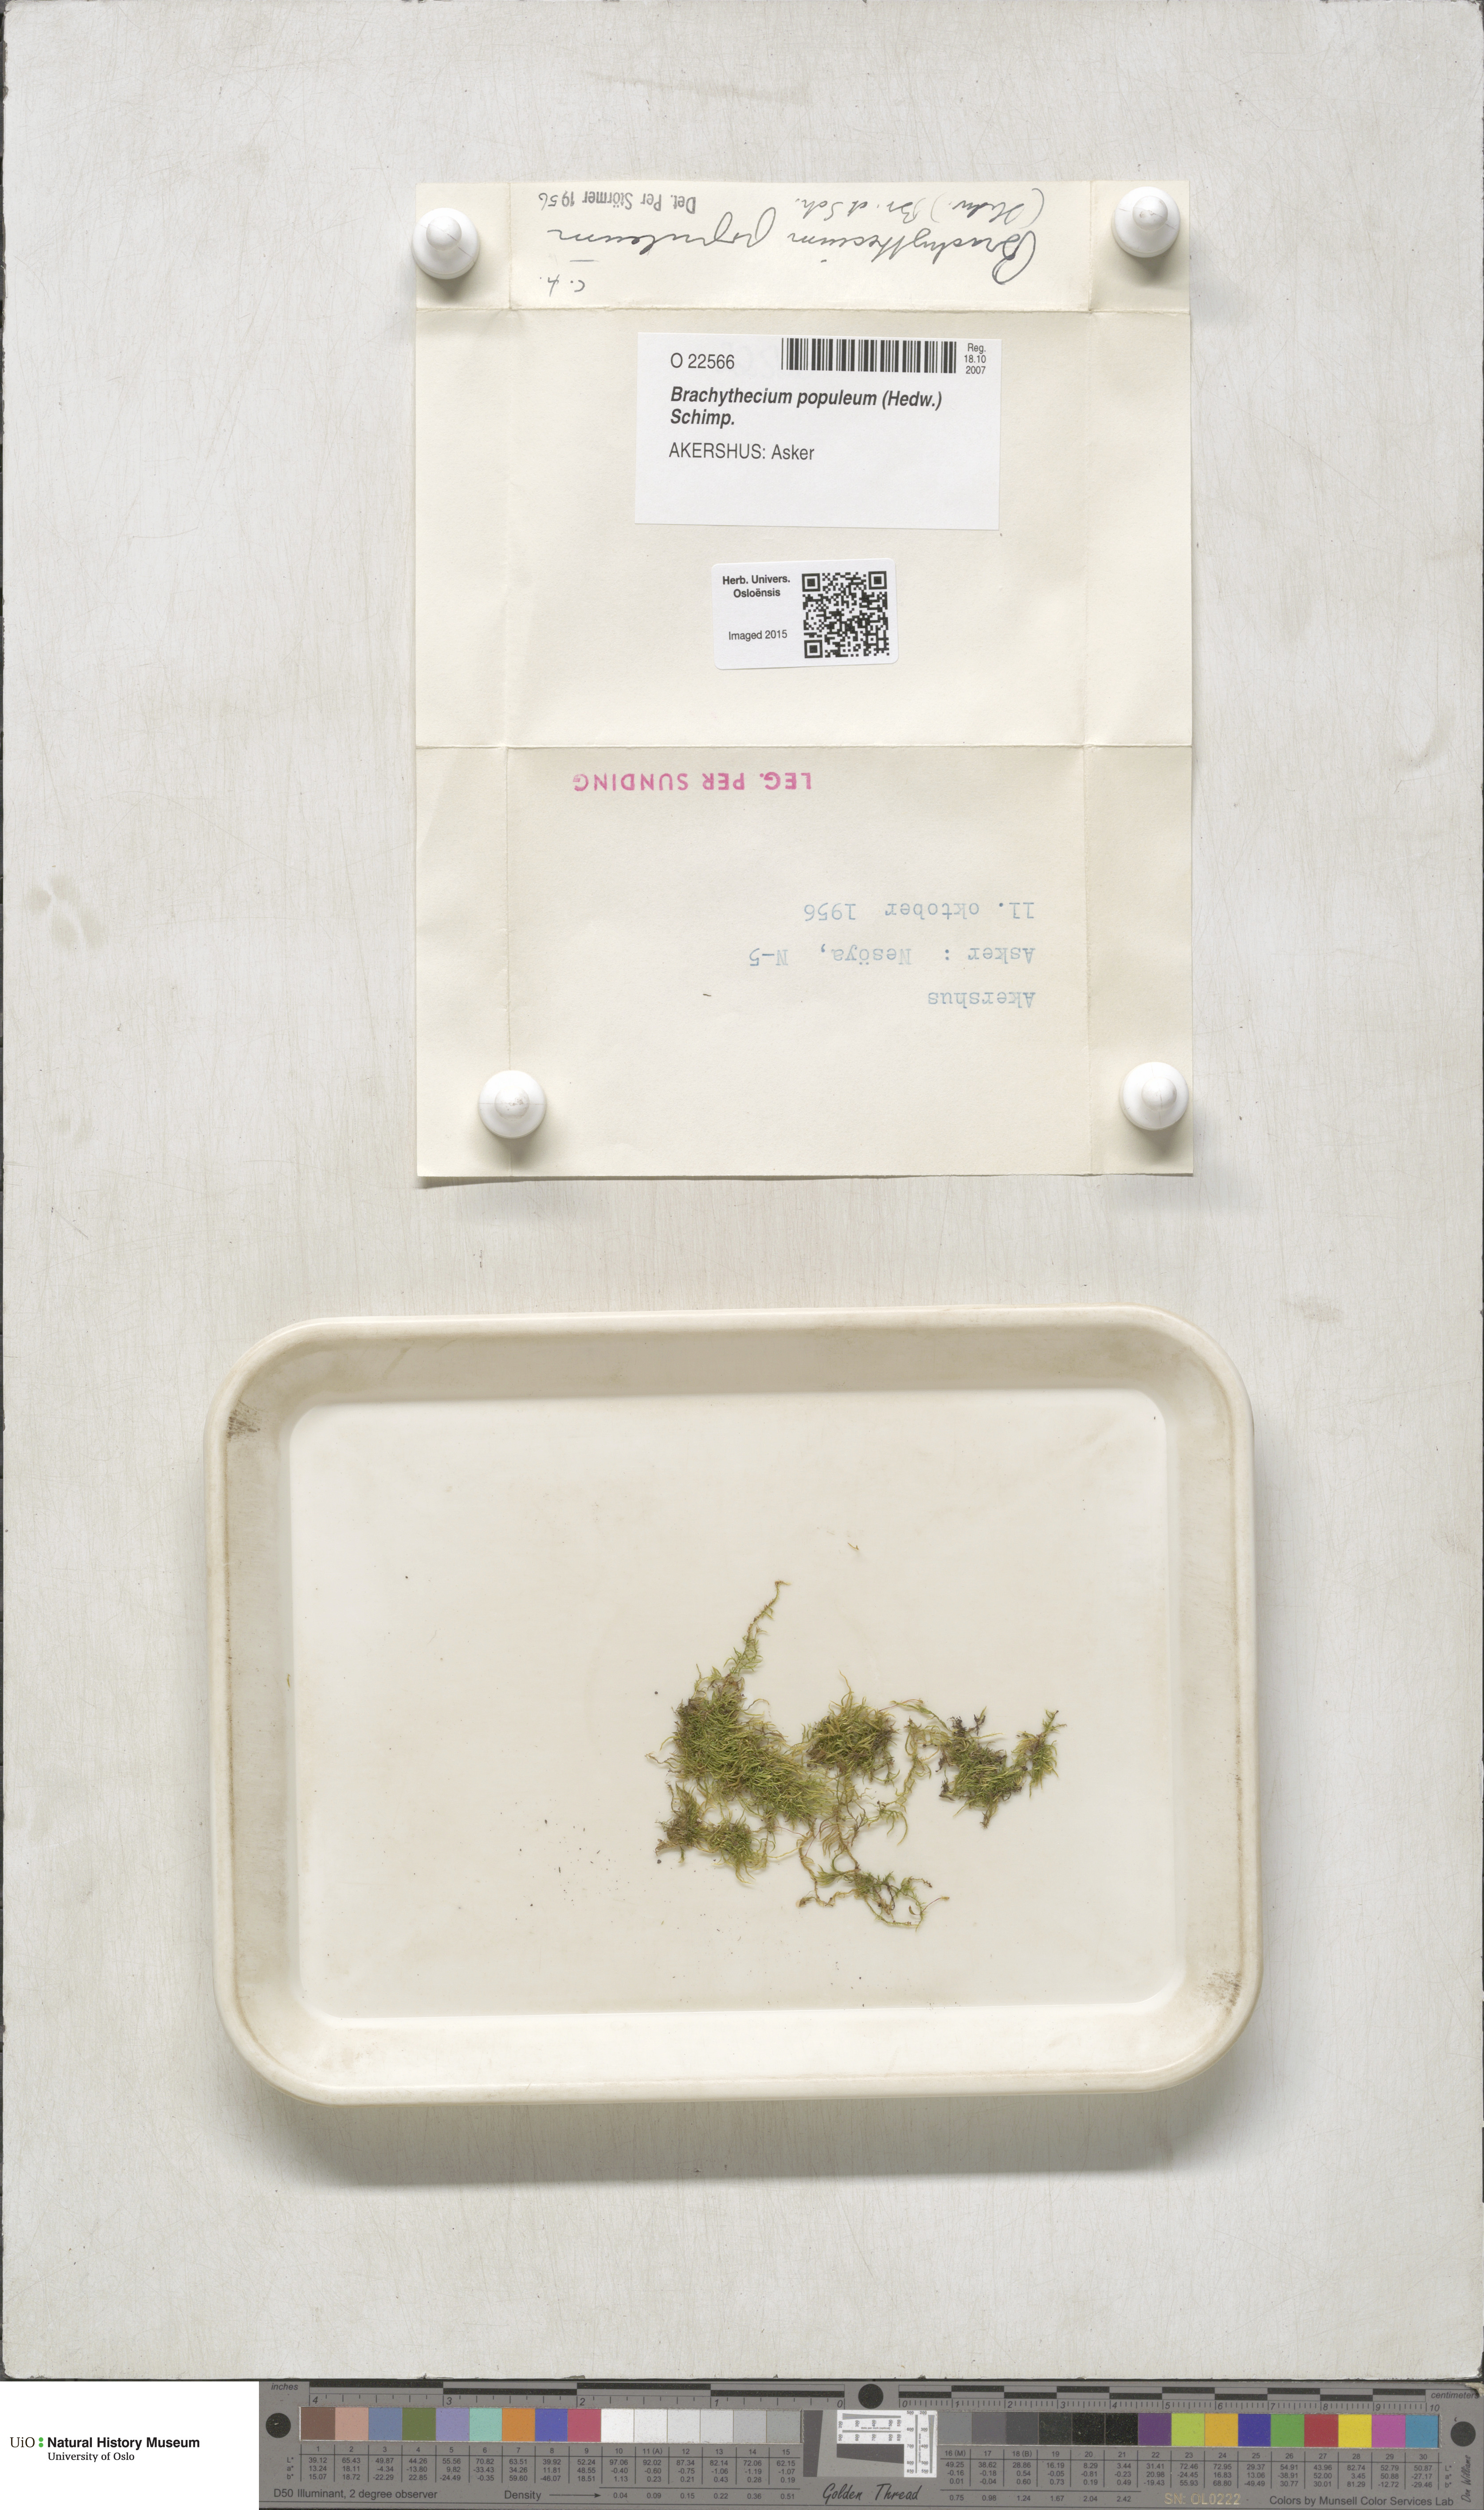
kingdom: Plantae
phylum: Bryophyta
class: Bryopsida
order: Hypnales
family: Brachytheciaceae
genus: Sciuro-hypnum
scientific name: Sciuro-hypnum plumosum
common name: Rusty feather-moss
